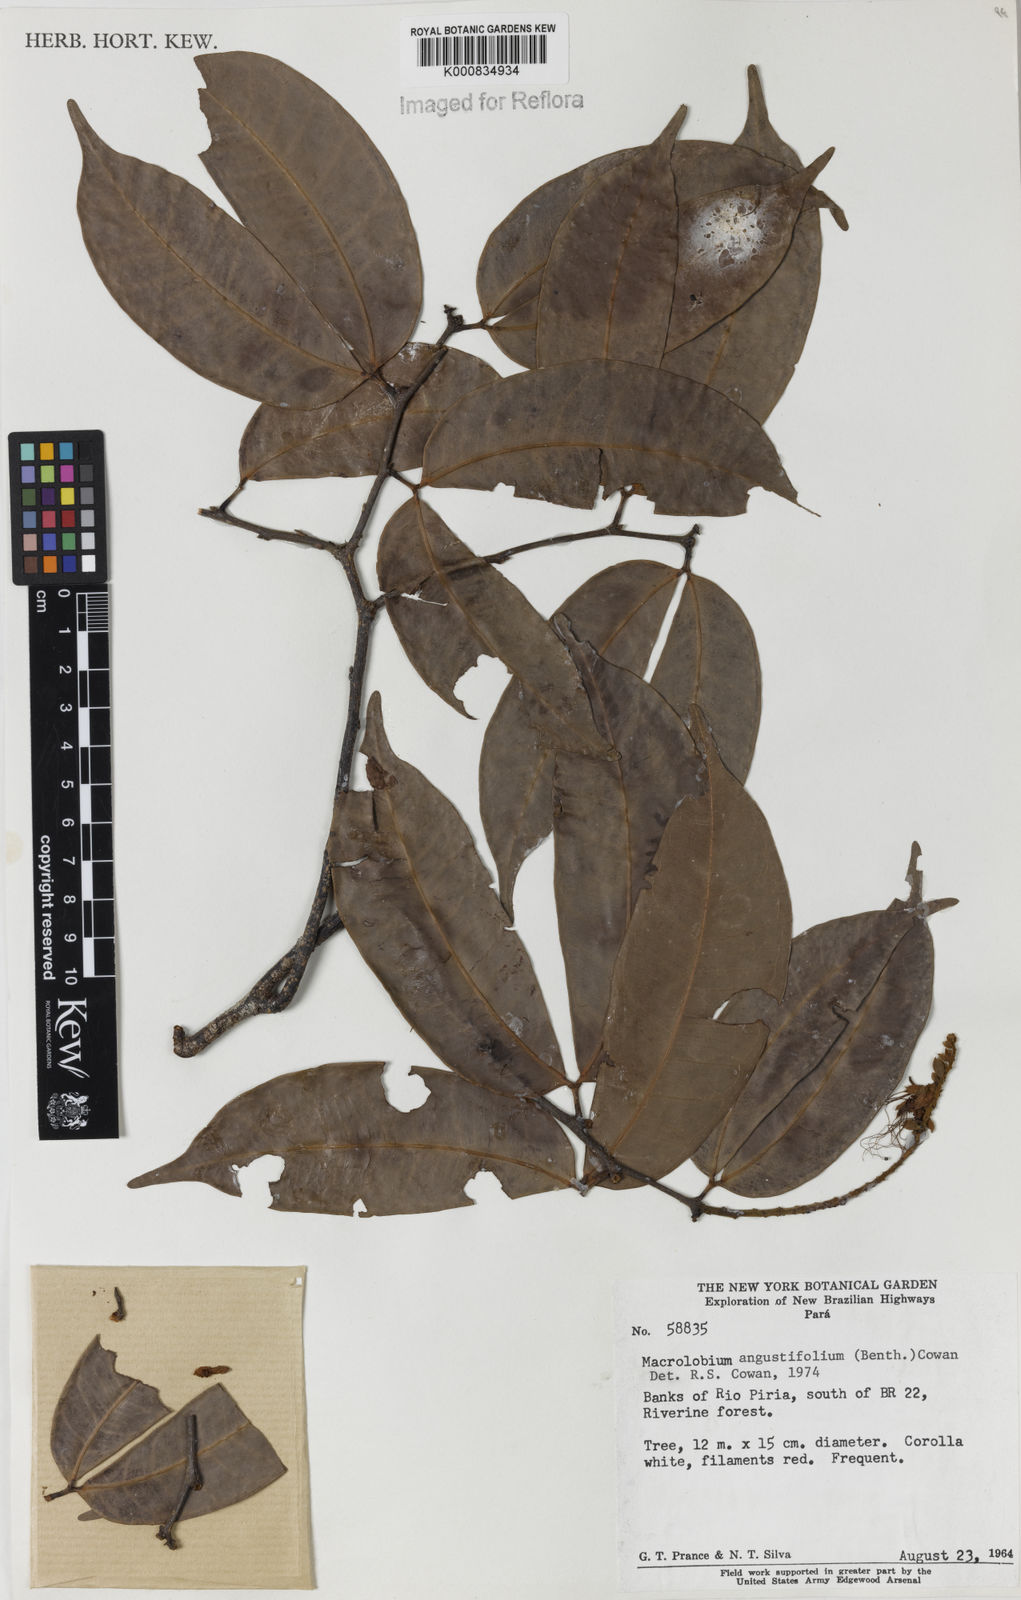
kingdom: Plantae
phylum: Tracheophyta
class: Magnoliopsida
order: Fabales
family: Fabaceae
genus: Macrolobium
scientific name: Macrolobium angustifolium
